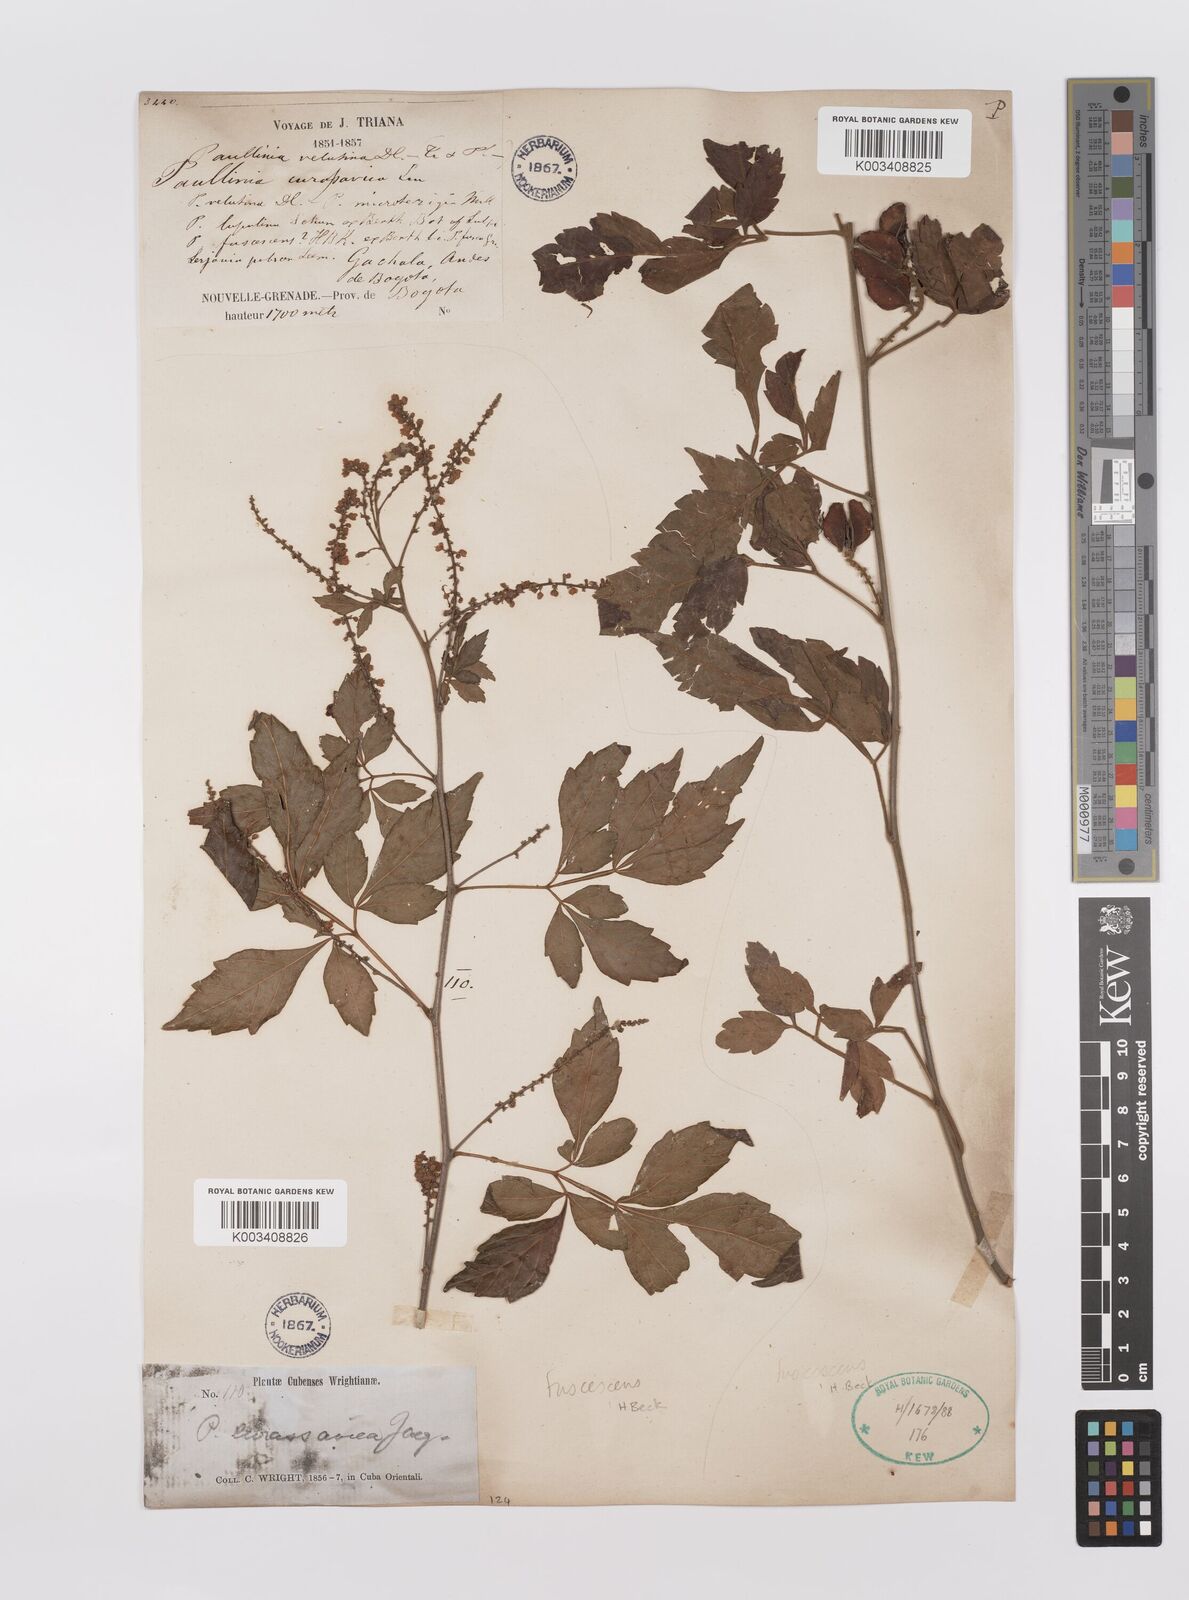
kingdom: Plantae
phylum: Tracheophyta
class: Magnoliopsida
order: Sapindales
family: Sapindaceae
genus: Paullinia
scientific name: Paullinia fuscescens
